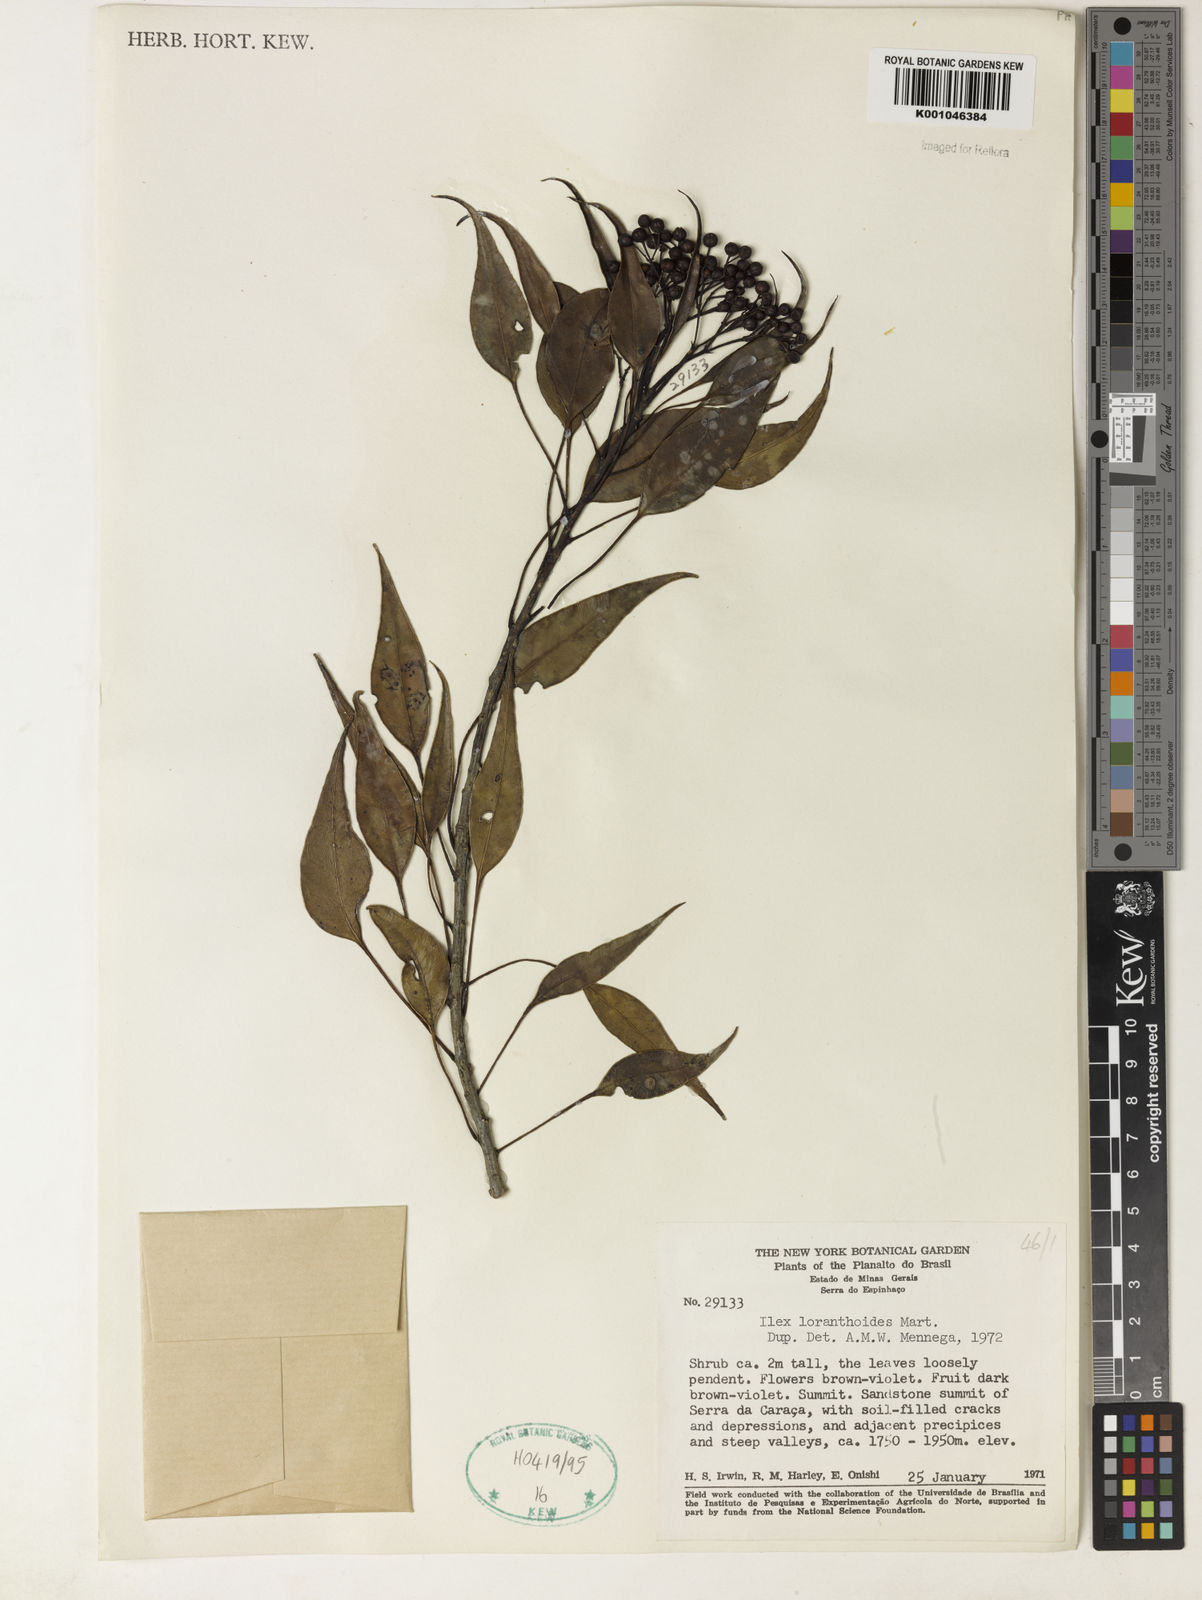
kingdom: Plantae
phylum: Tracheophyta
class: Magnoliopsida
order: Aquifoliales
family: Aquifoliaceae
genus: Ilex
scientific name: Ilex loranthoides
